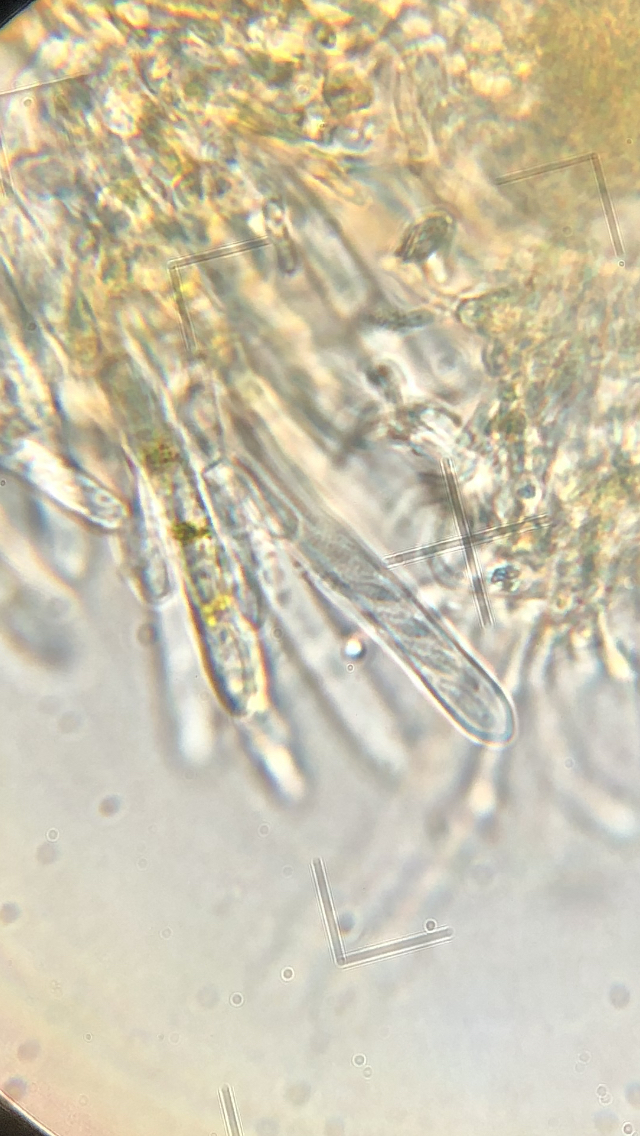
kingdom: Fungi
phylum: Ascomycota
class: Leotiomycetes
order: Helotiales
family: Lachnaceae
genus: Capitotricha
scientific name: Capitotricha bicolor
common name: prægtig frynseskive
